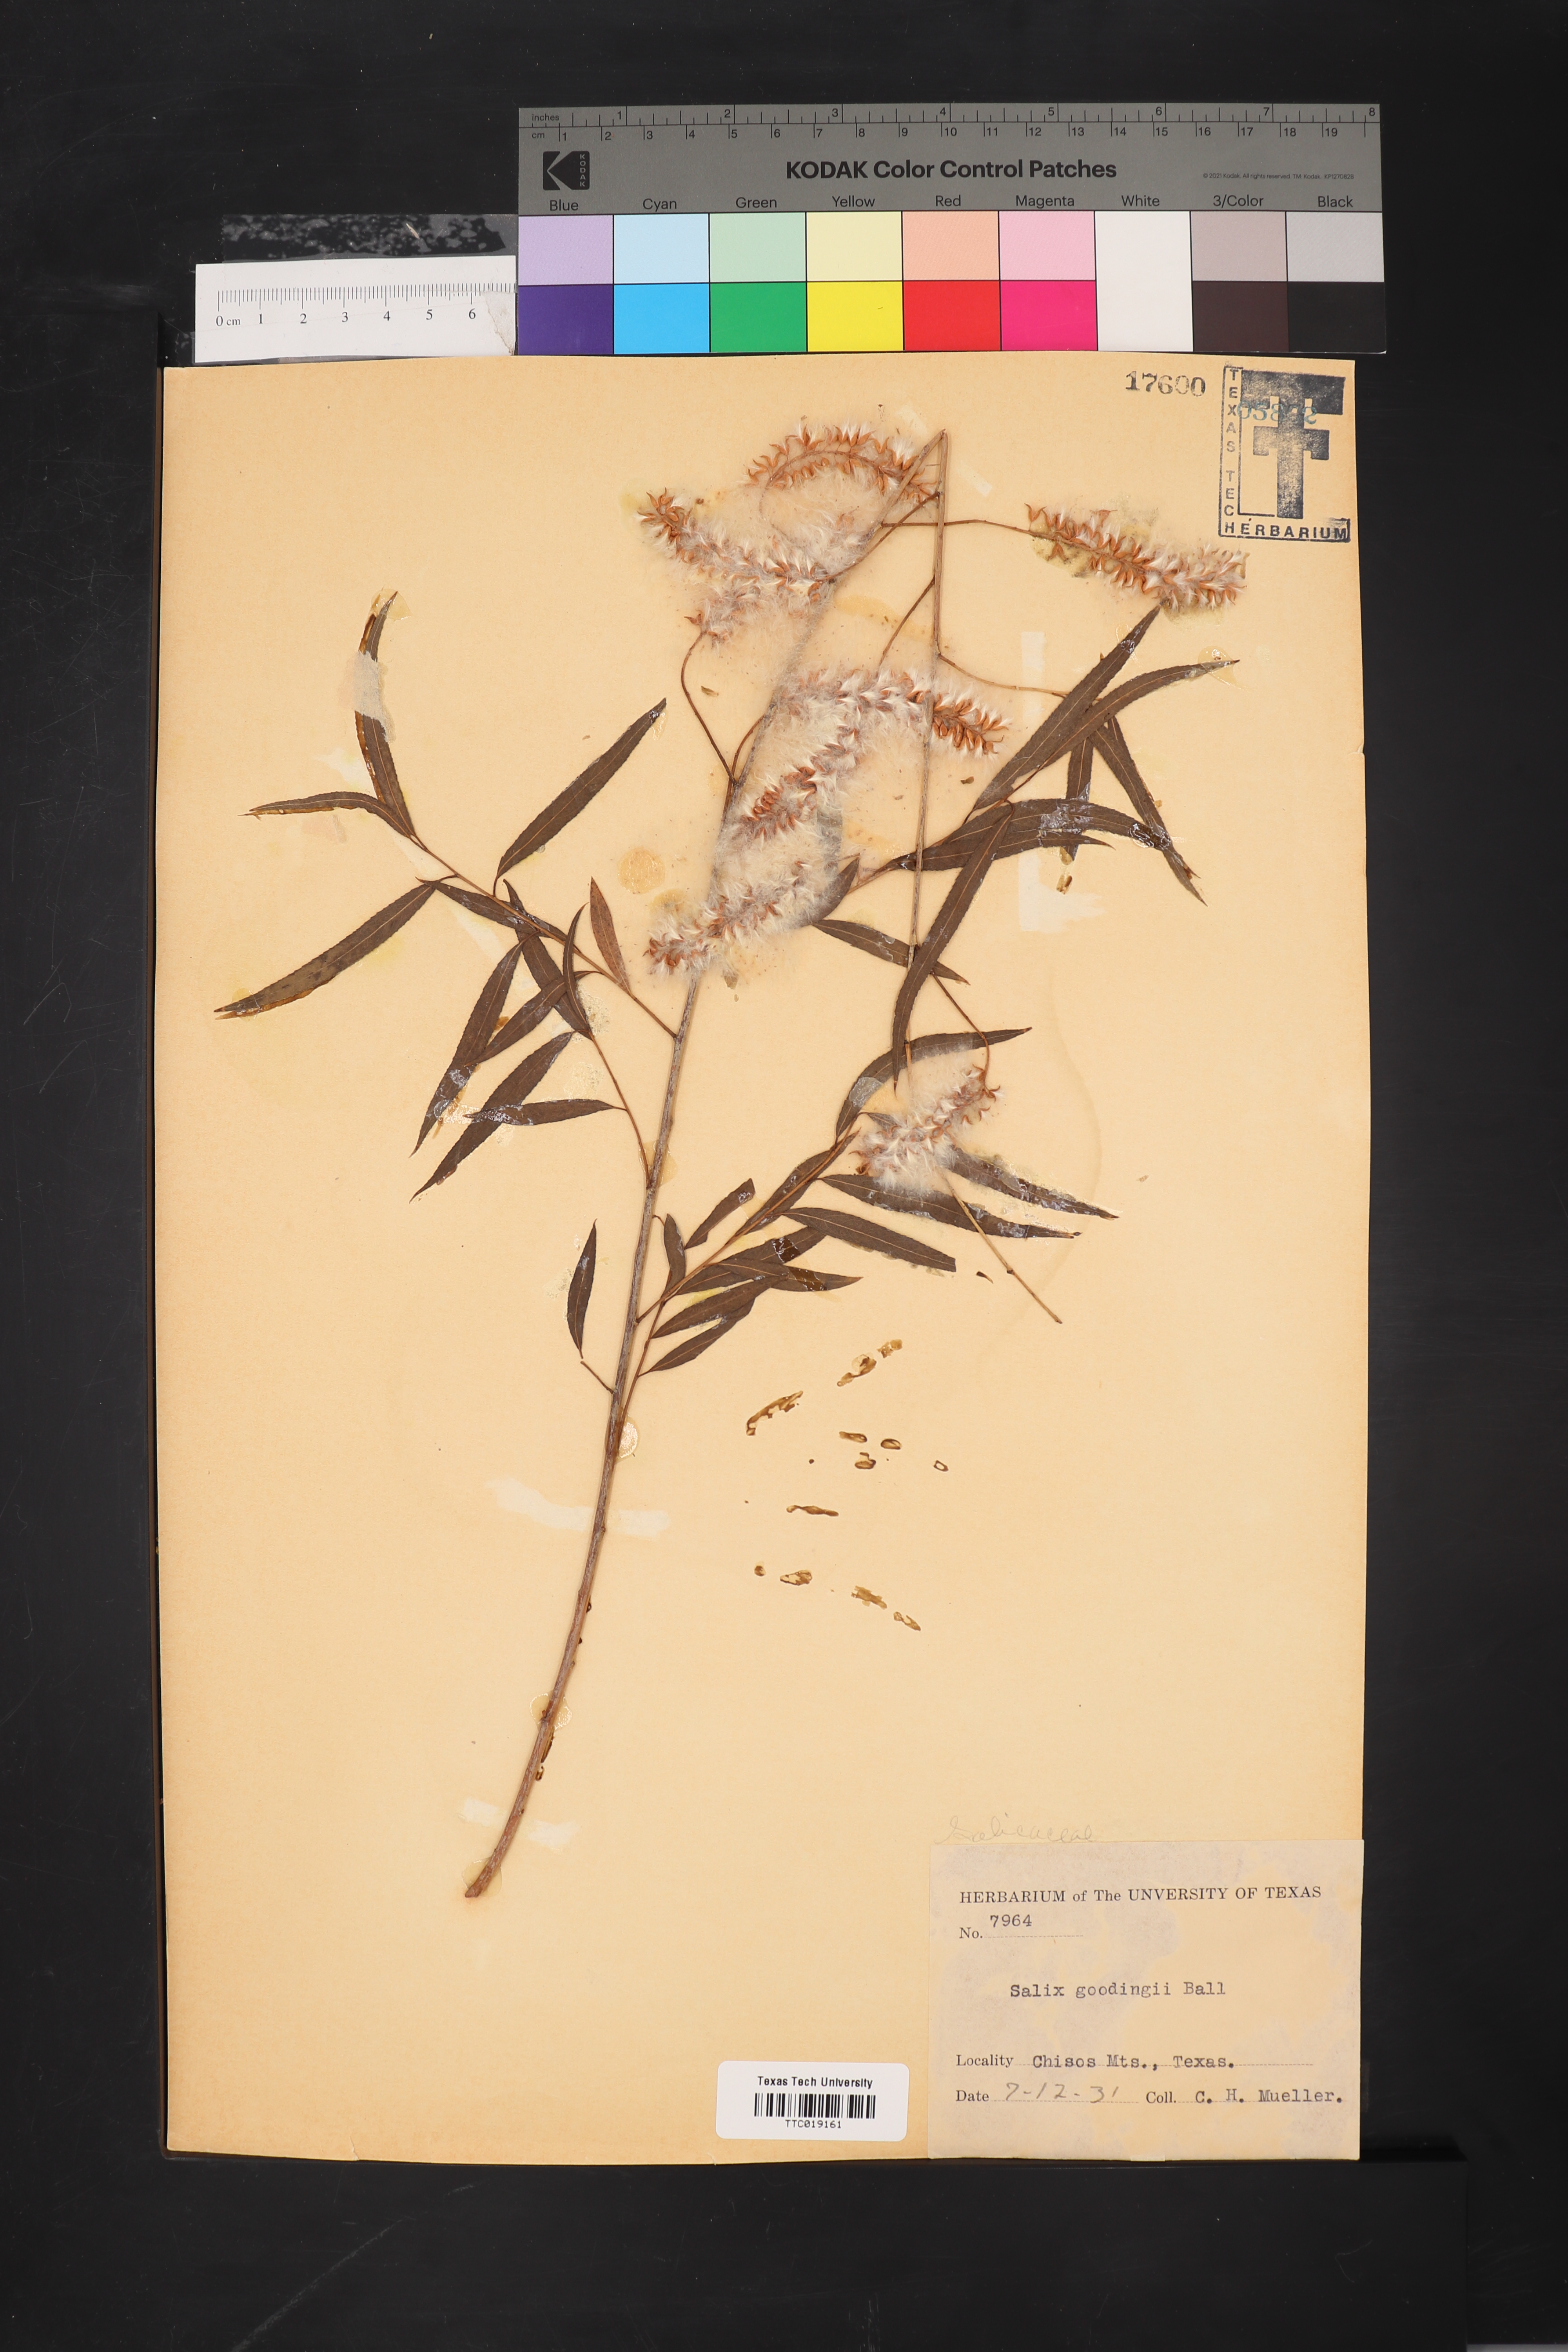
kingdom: Plantae
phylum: Tracheophyta
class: Magnoliopsida
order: Malpighiales
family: Salicaceae
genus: Salix
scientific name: Salix gooddingii
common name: Goodding's willow
